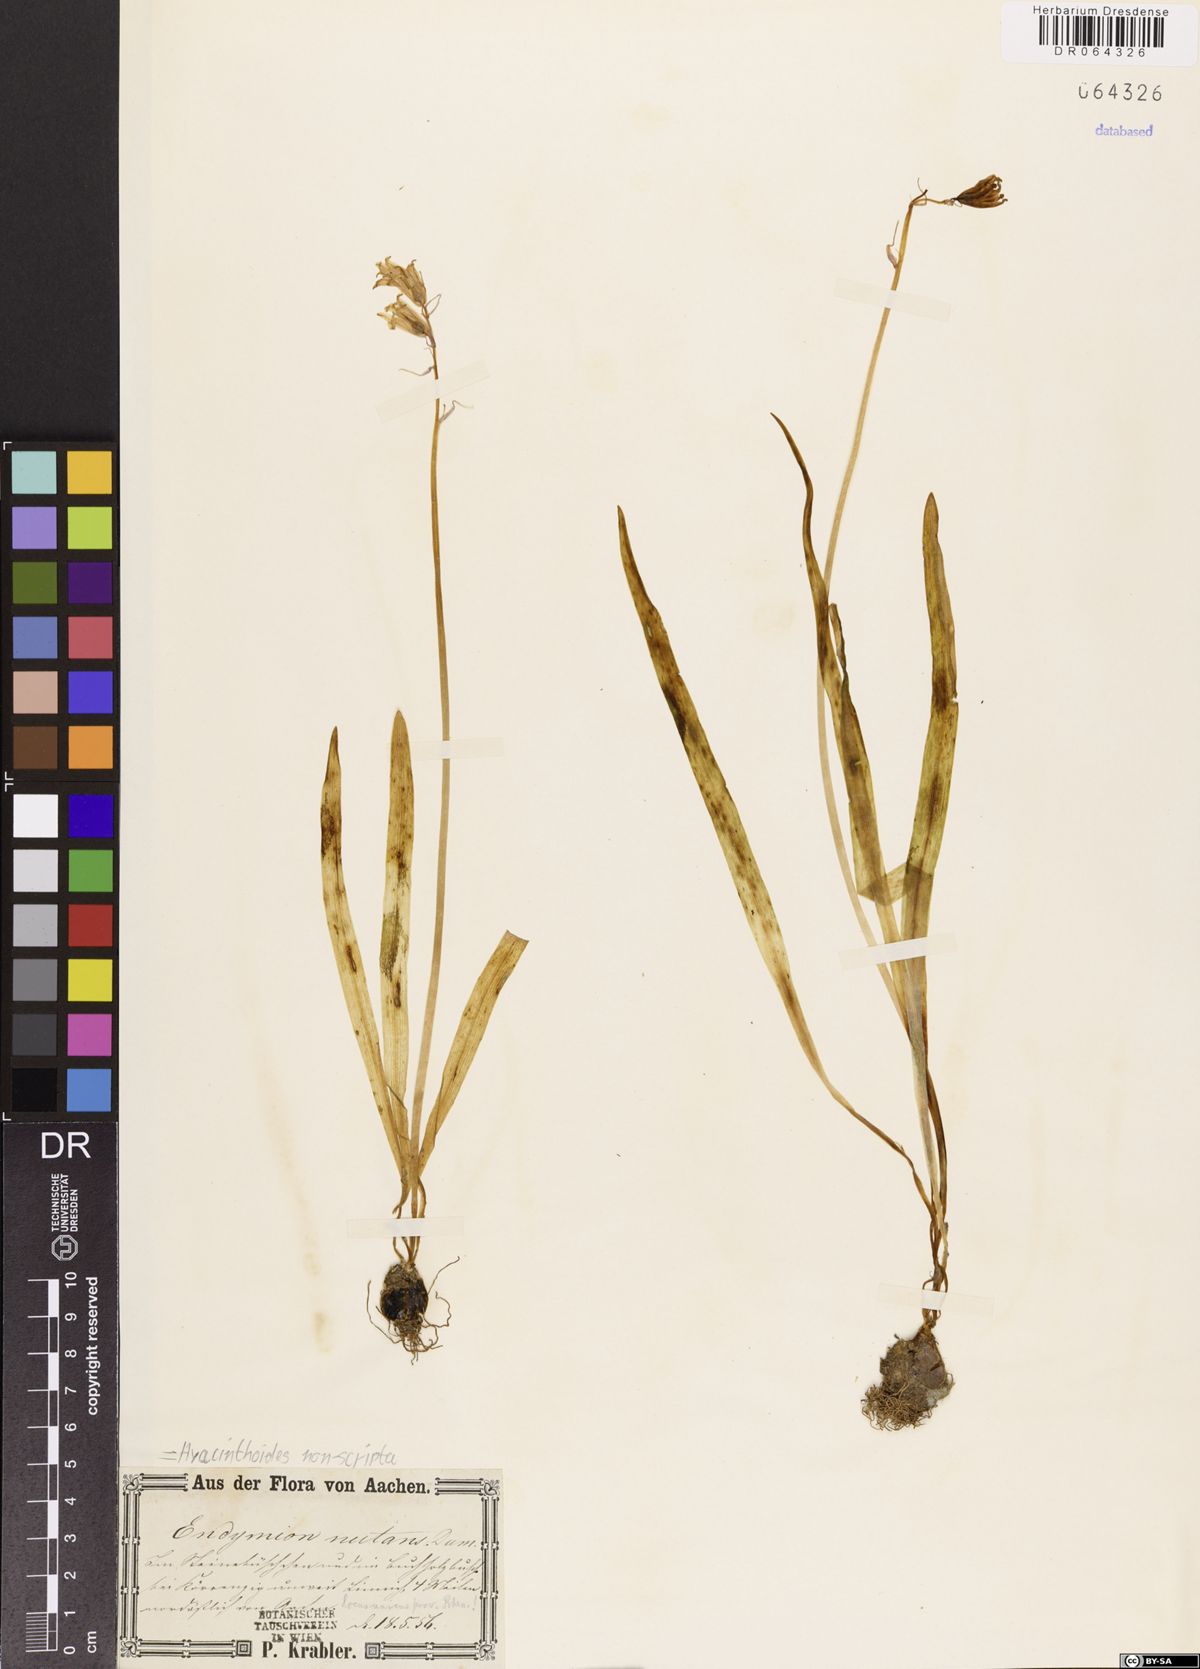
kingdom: Plantae
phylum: Tracheophyta
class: Liliopsida
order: Asparagales
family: Asparagaceae
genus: Hyacinthoides
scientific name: Hyacinthoides non-scripta
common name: Bluebell
